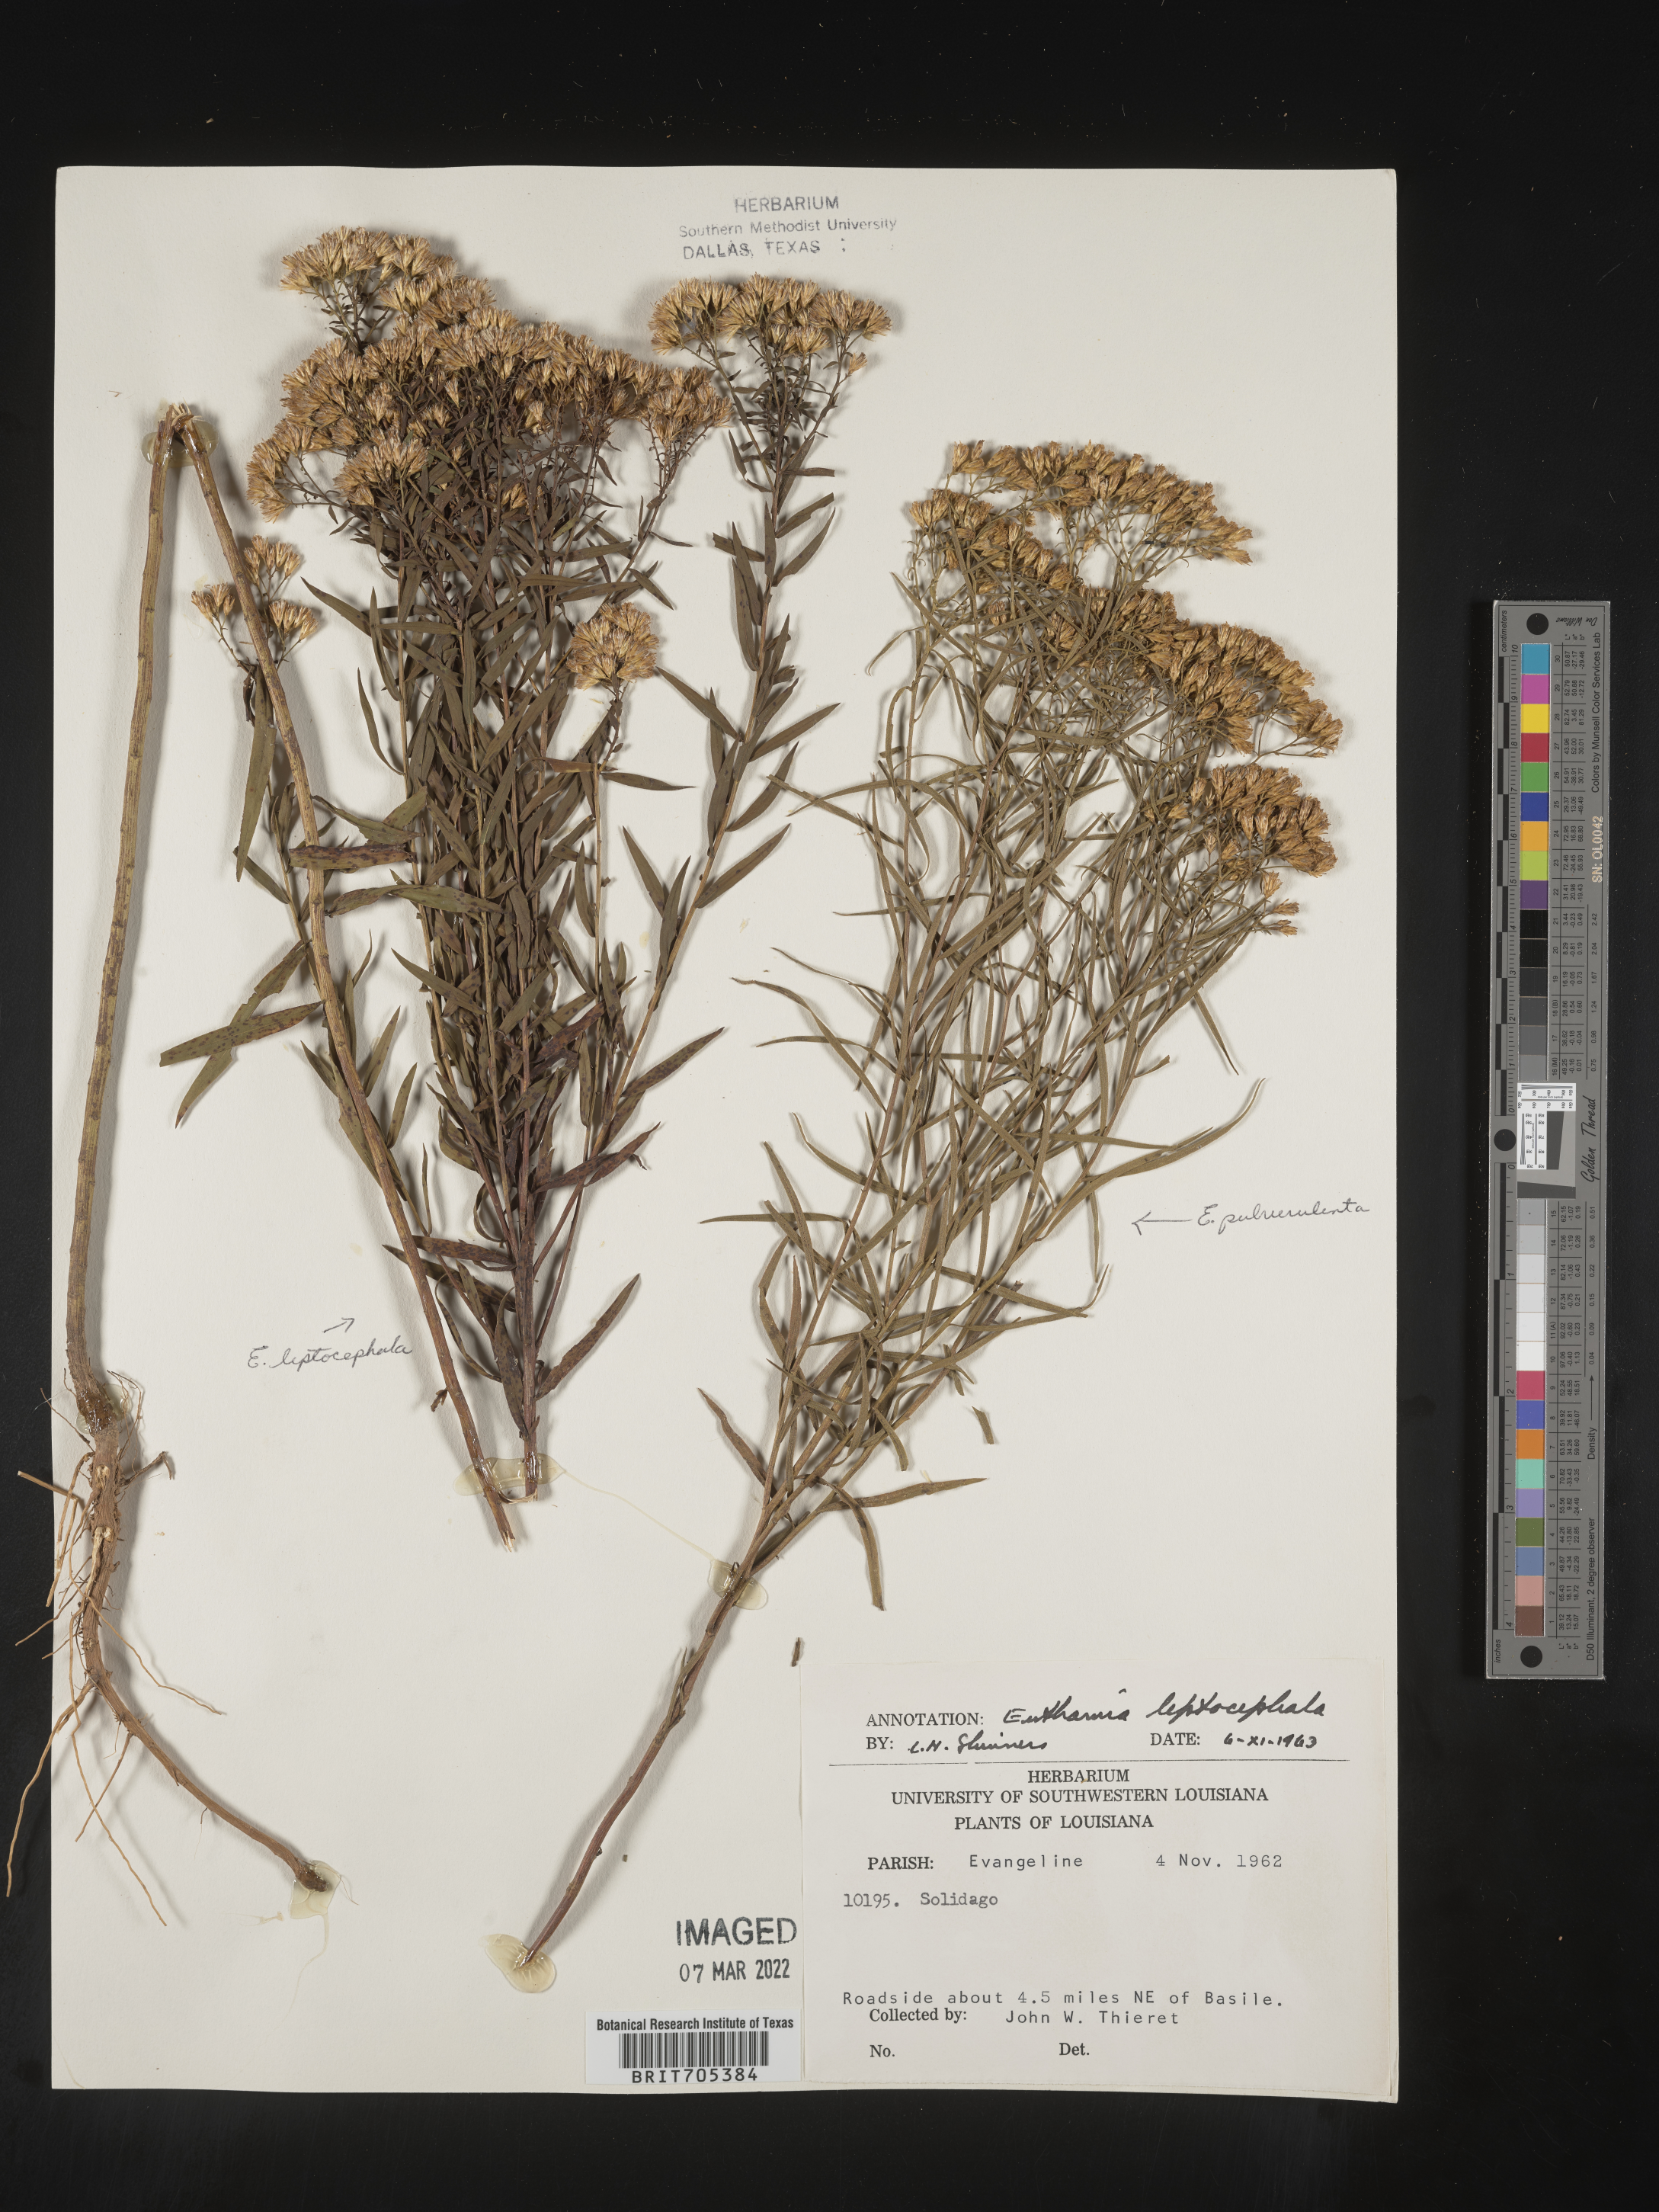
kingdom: Plantae
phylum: Tracheophyta
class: Magnoliopsida
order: Asterales
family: Asteraceae
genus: Euthamia
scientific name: Euthamia leptocephala
